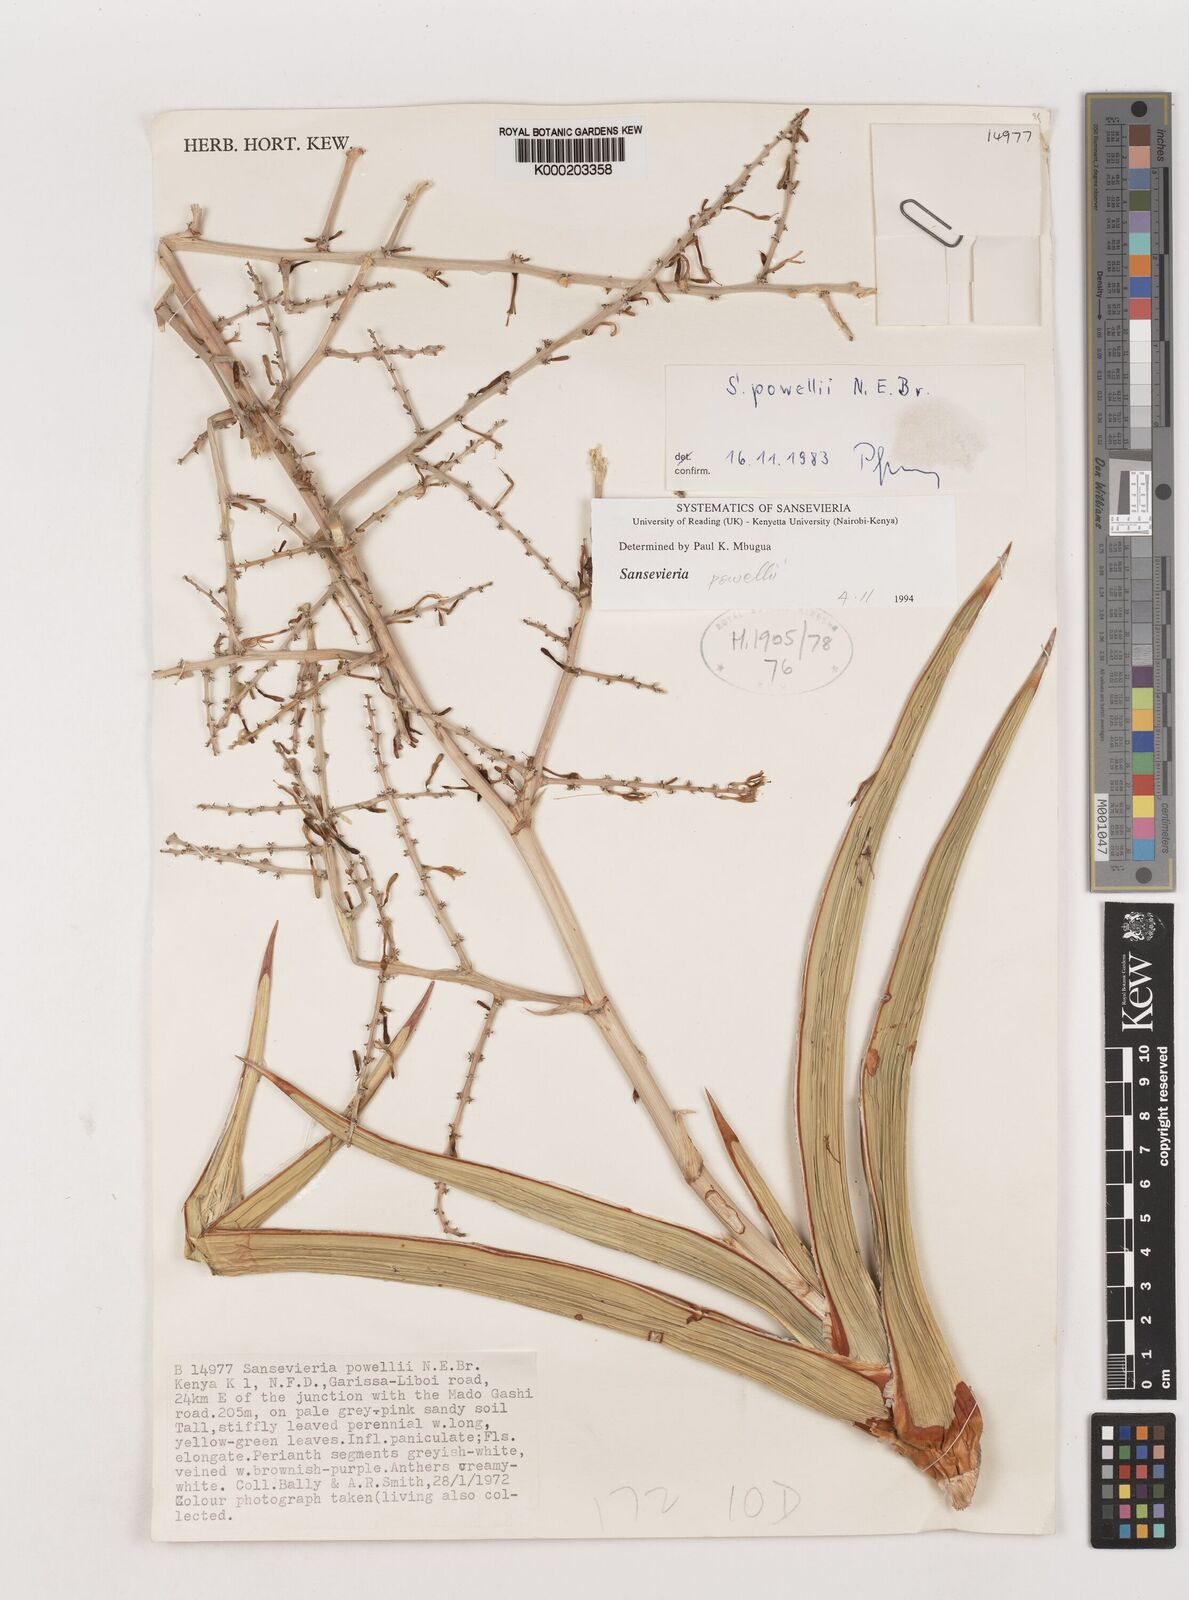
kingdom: Plantae
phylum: Tracheophyta
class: Liliopsida
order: Asparagales
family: Asparagaceae
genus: Dracaena
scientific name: Dracaena powellii
